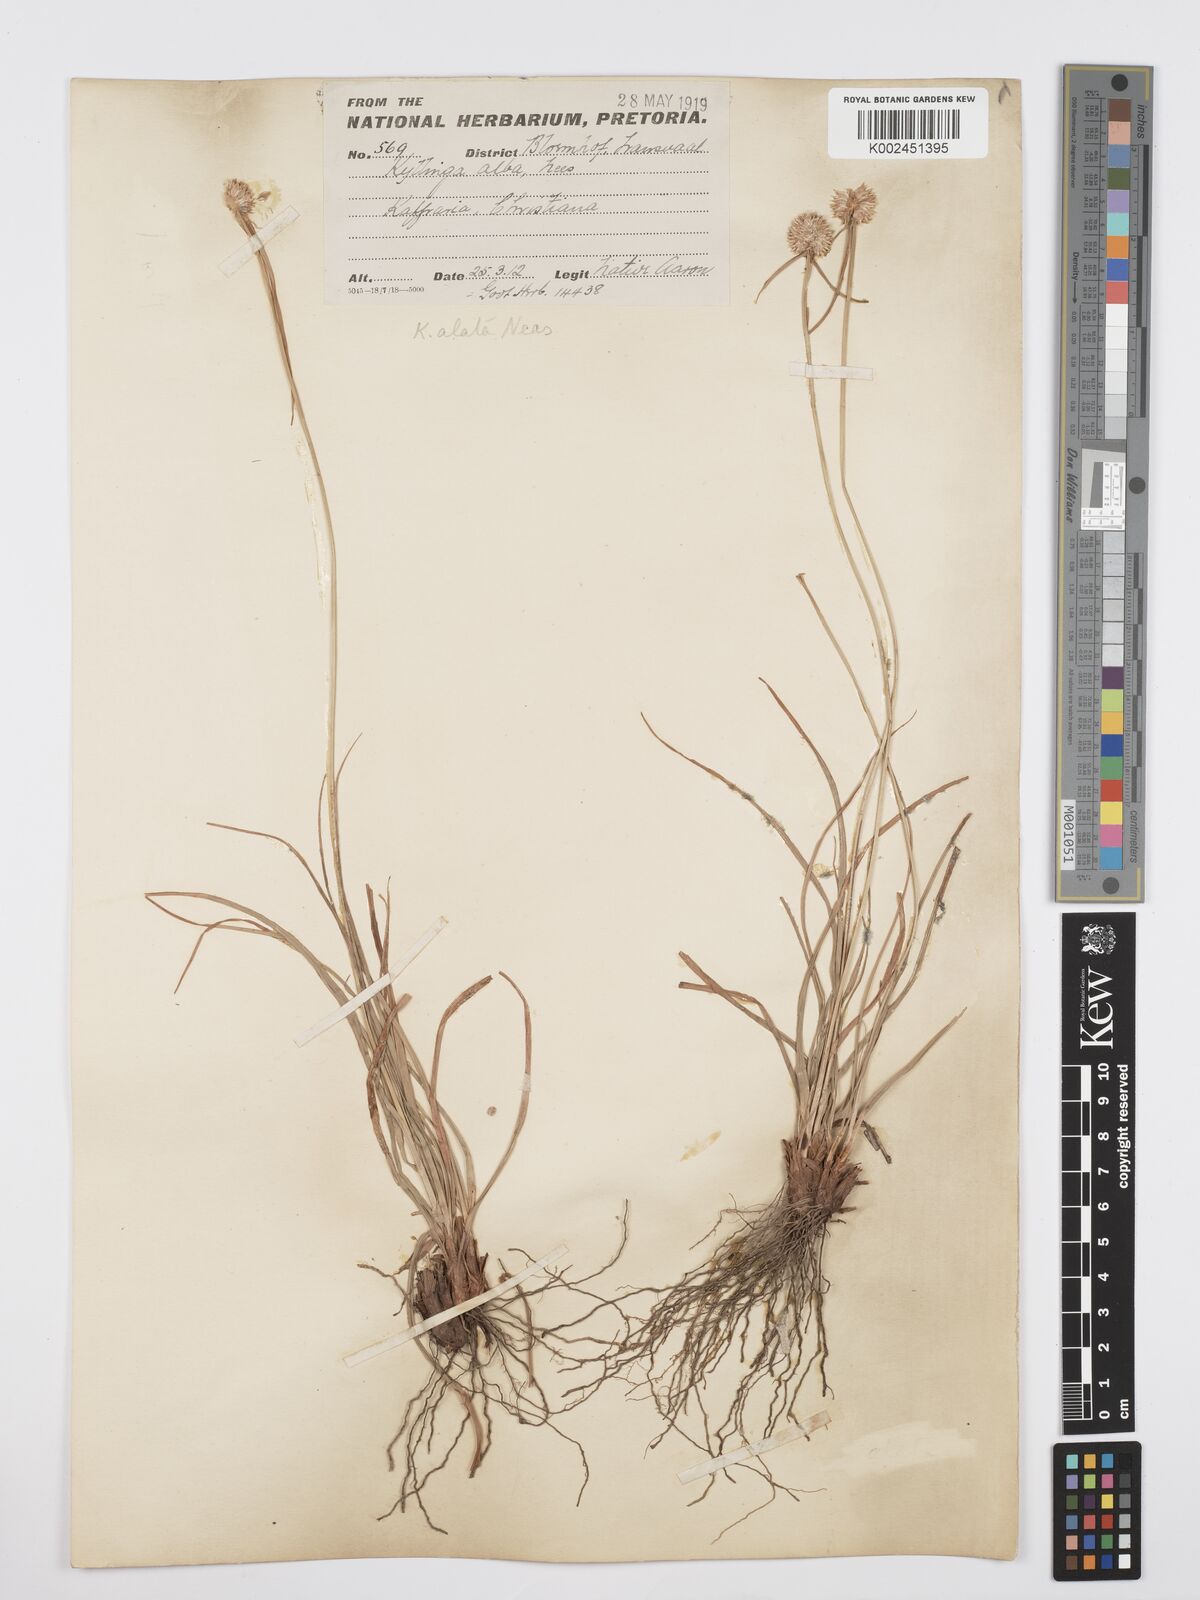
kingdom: Plantae
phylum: Tracheophyta
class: Liliopsida
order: Poales
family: Cyperaceae
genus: Cyperus
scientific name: Cyperus alatus
